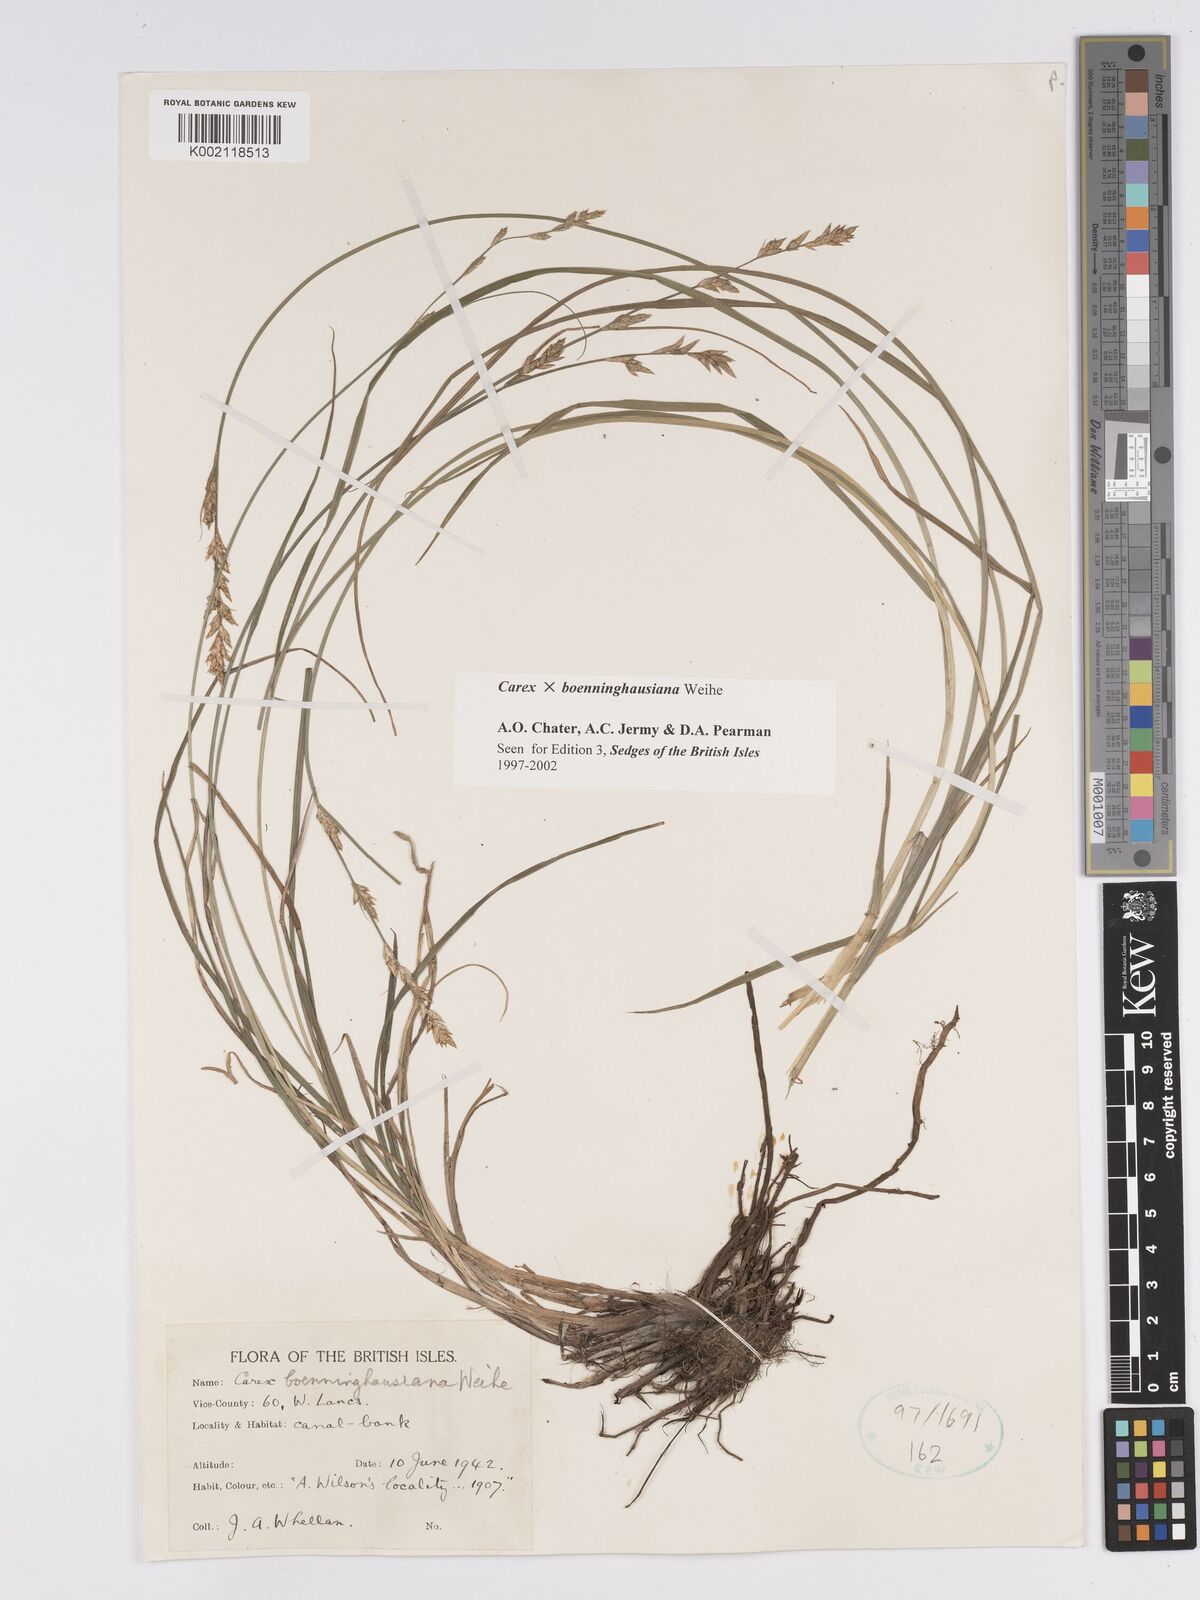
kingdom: Plantae
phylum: Tracheophyta
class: Liliopsida
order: Poales
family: Cyperaceae
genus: Carex
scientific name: Carex boenninghausiana
